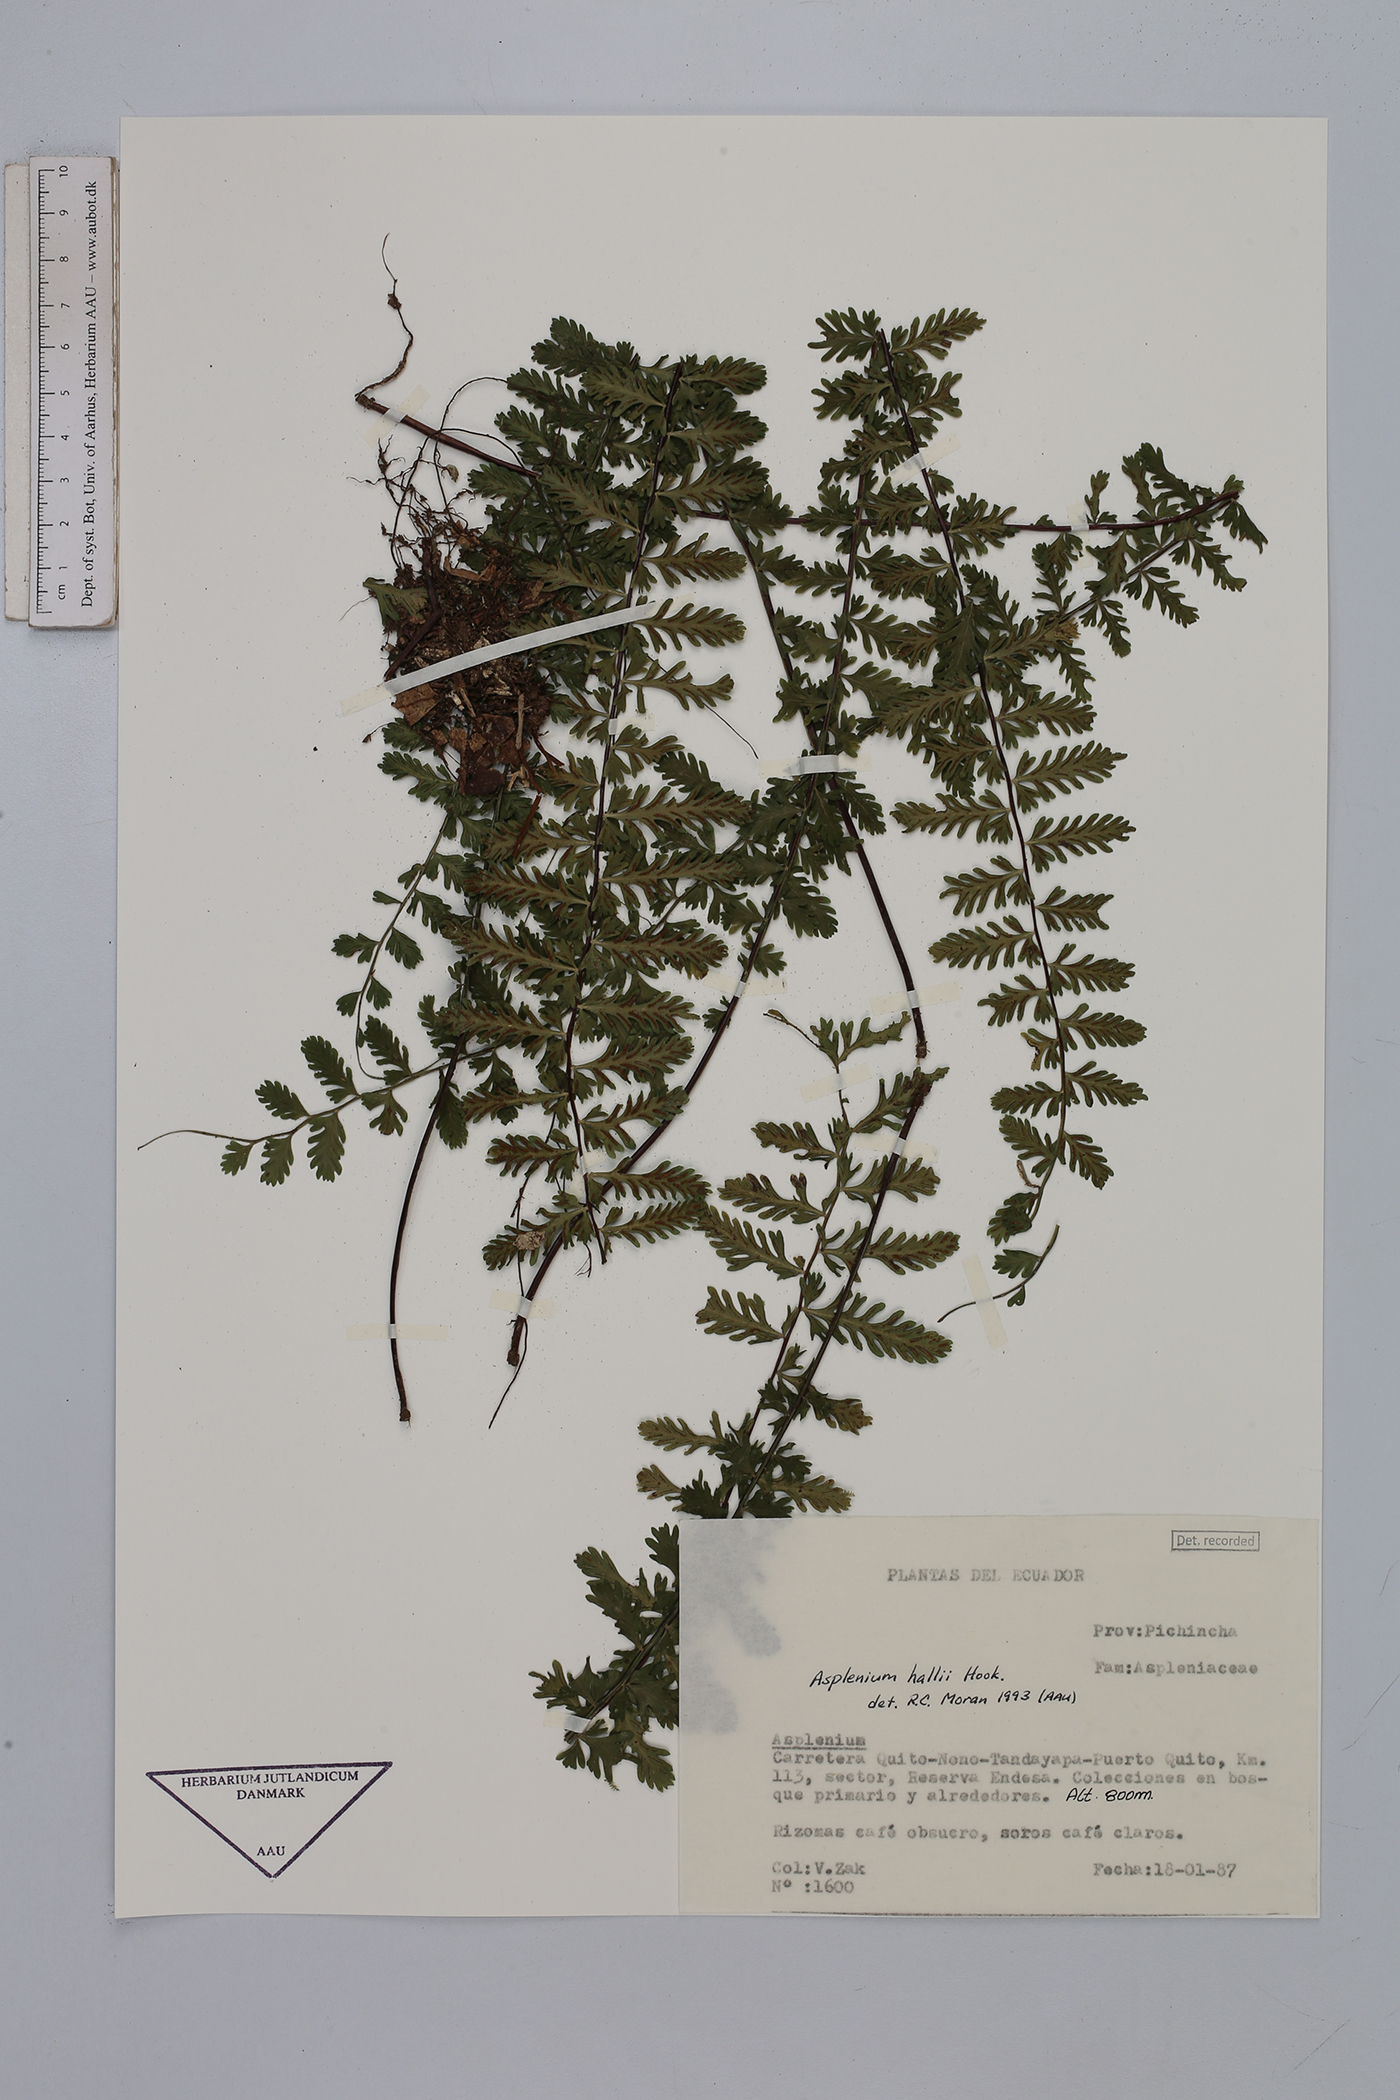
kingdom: Plantae
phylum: Tracheophyta
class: Polypodiopsida
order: Polypodiales
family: Aspleniaceae
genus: Asplenium
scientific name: Asplenium hallii
